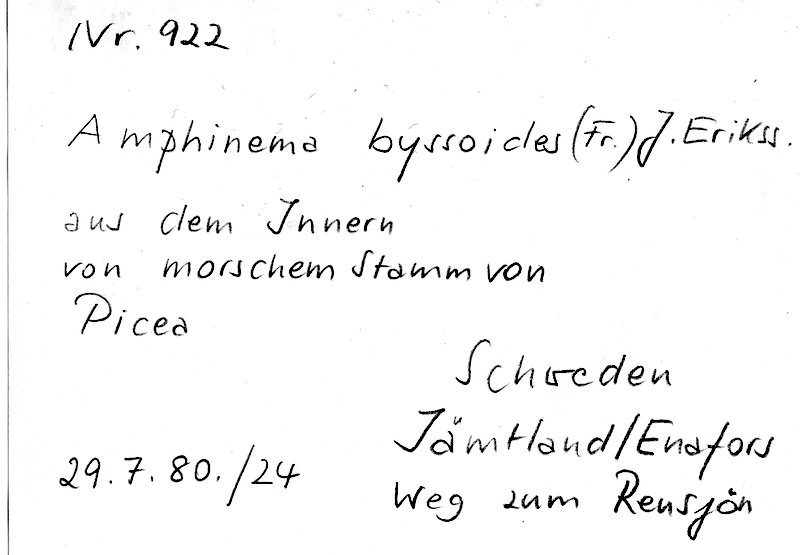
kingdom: Plantae
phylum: Tracheophyta
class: Pinopsida
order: Pinales
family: Pinaceae
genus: Picea
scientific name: Picea
